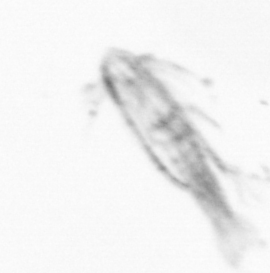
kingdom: Animalia
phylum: Arthropoda
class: Copepoda
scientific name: Copepoda
